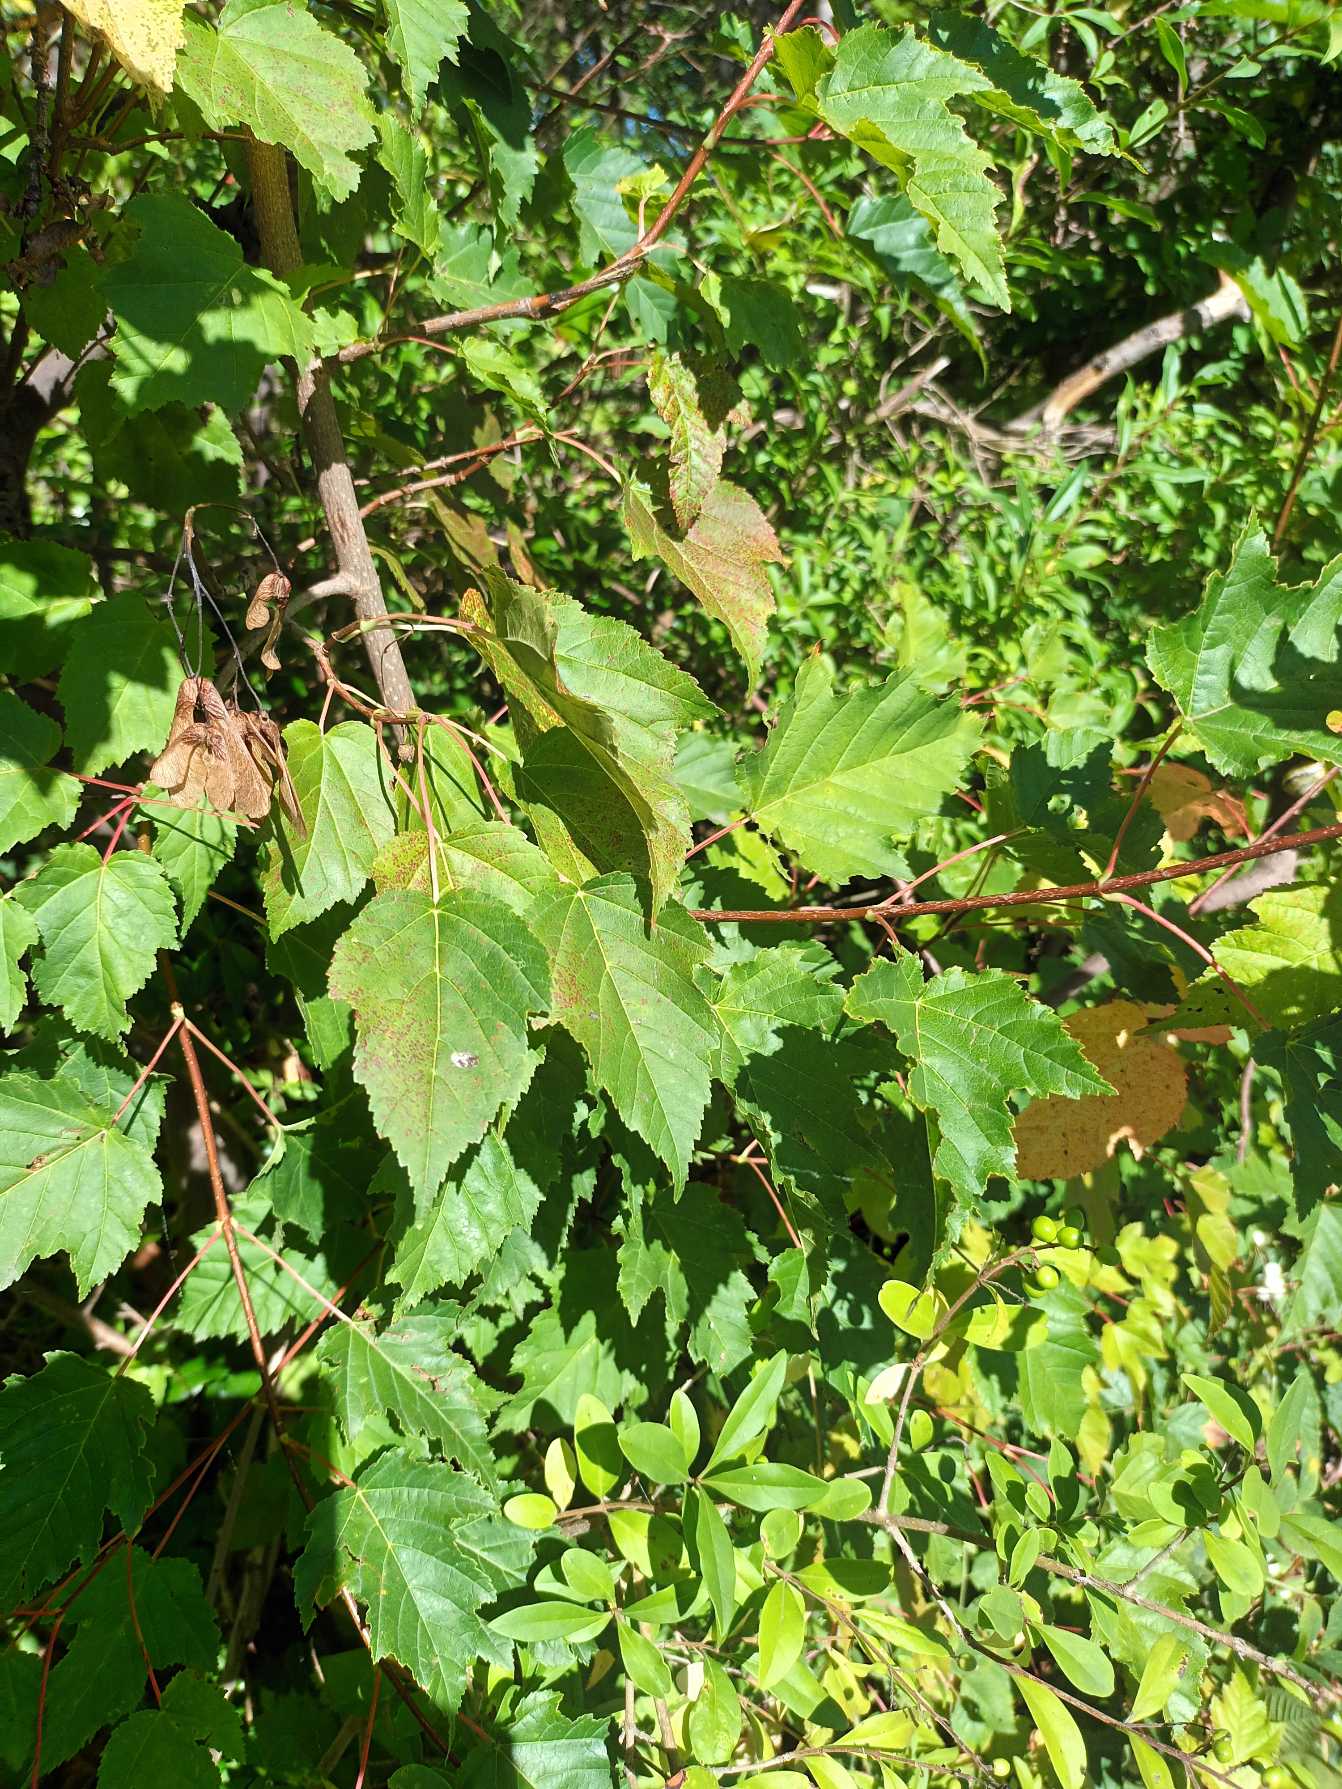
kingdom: Plantae
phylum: Tracheophyta
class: Magnoliopsida
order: Sapindales
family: Sapindaceae
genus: Acer
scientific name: Acer tataricum
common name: Ild-løn
